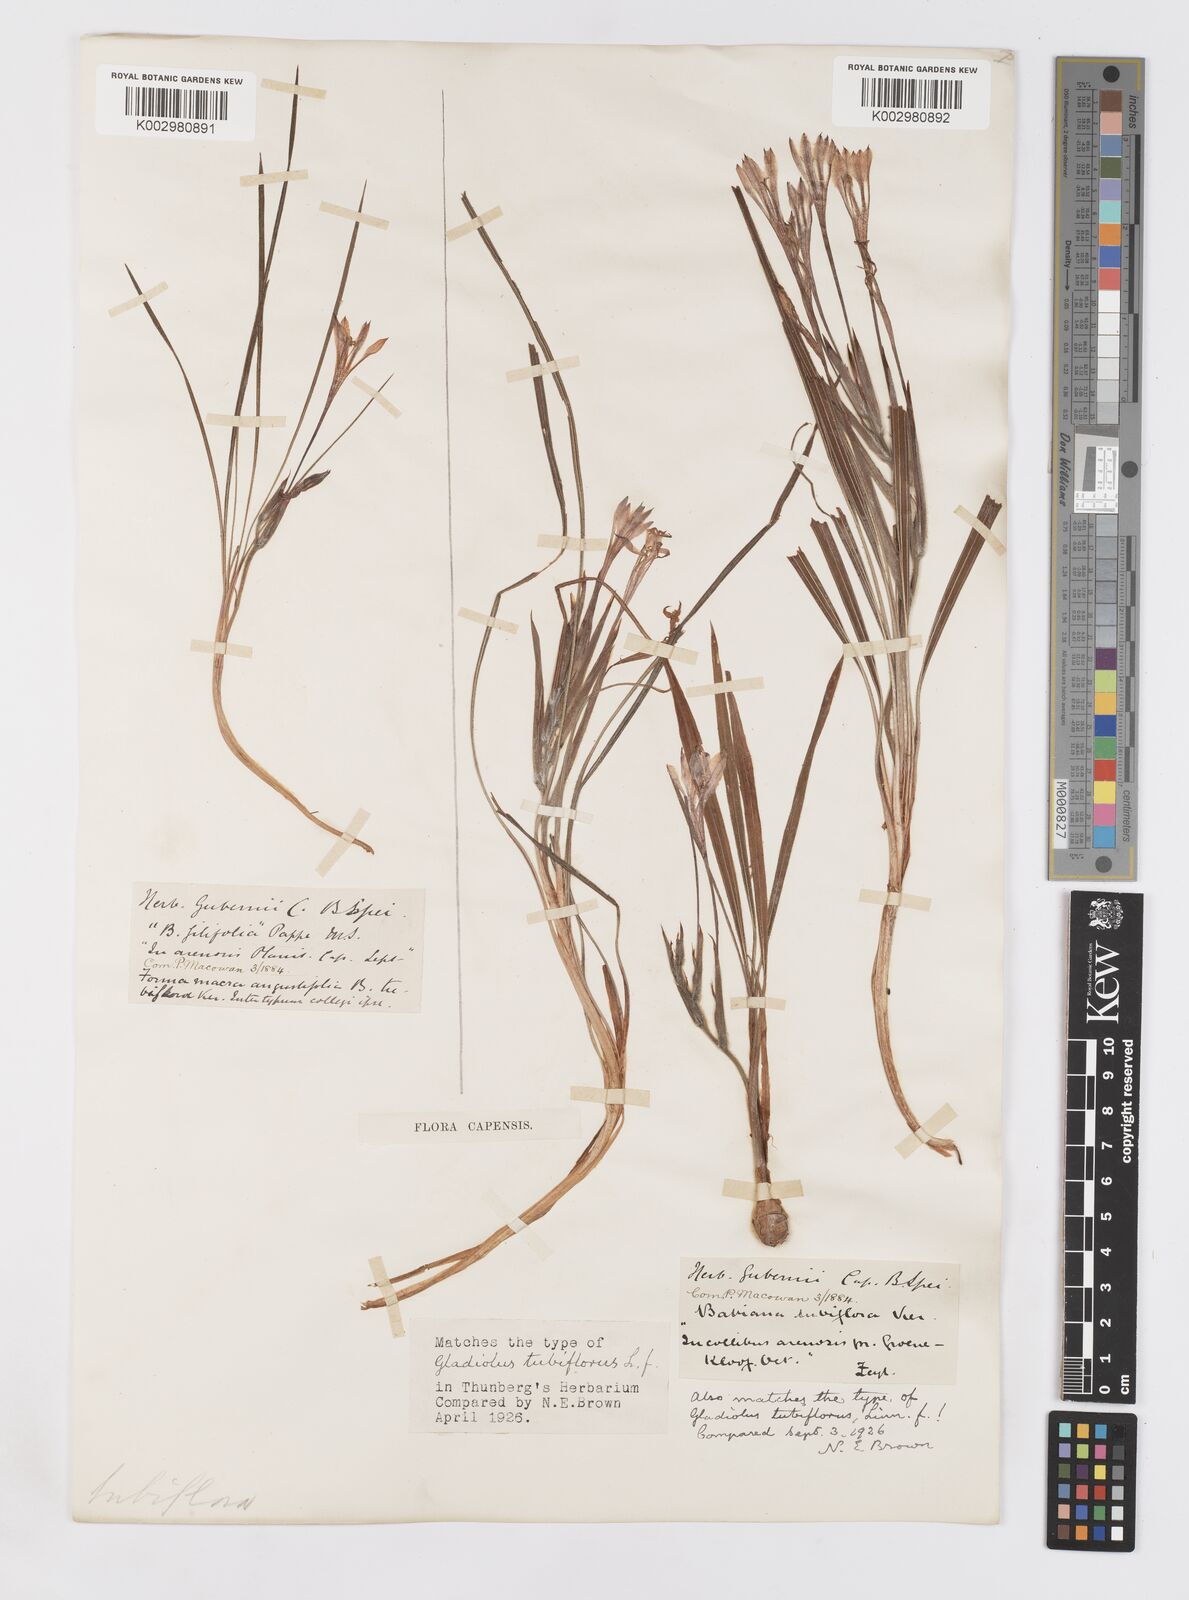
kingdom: Plantae
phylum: Tracheophyta
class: Liliopsida
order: Asparagales
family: Iridaceae
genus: Babiana
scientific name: Babiana tubiflora
